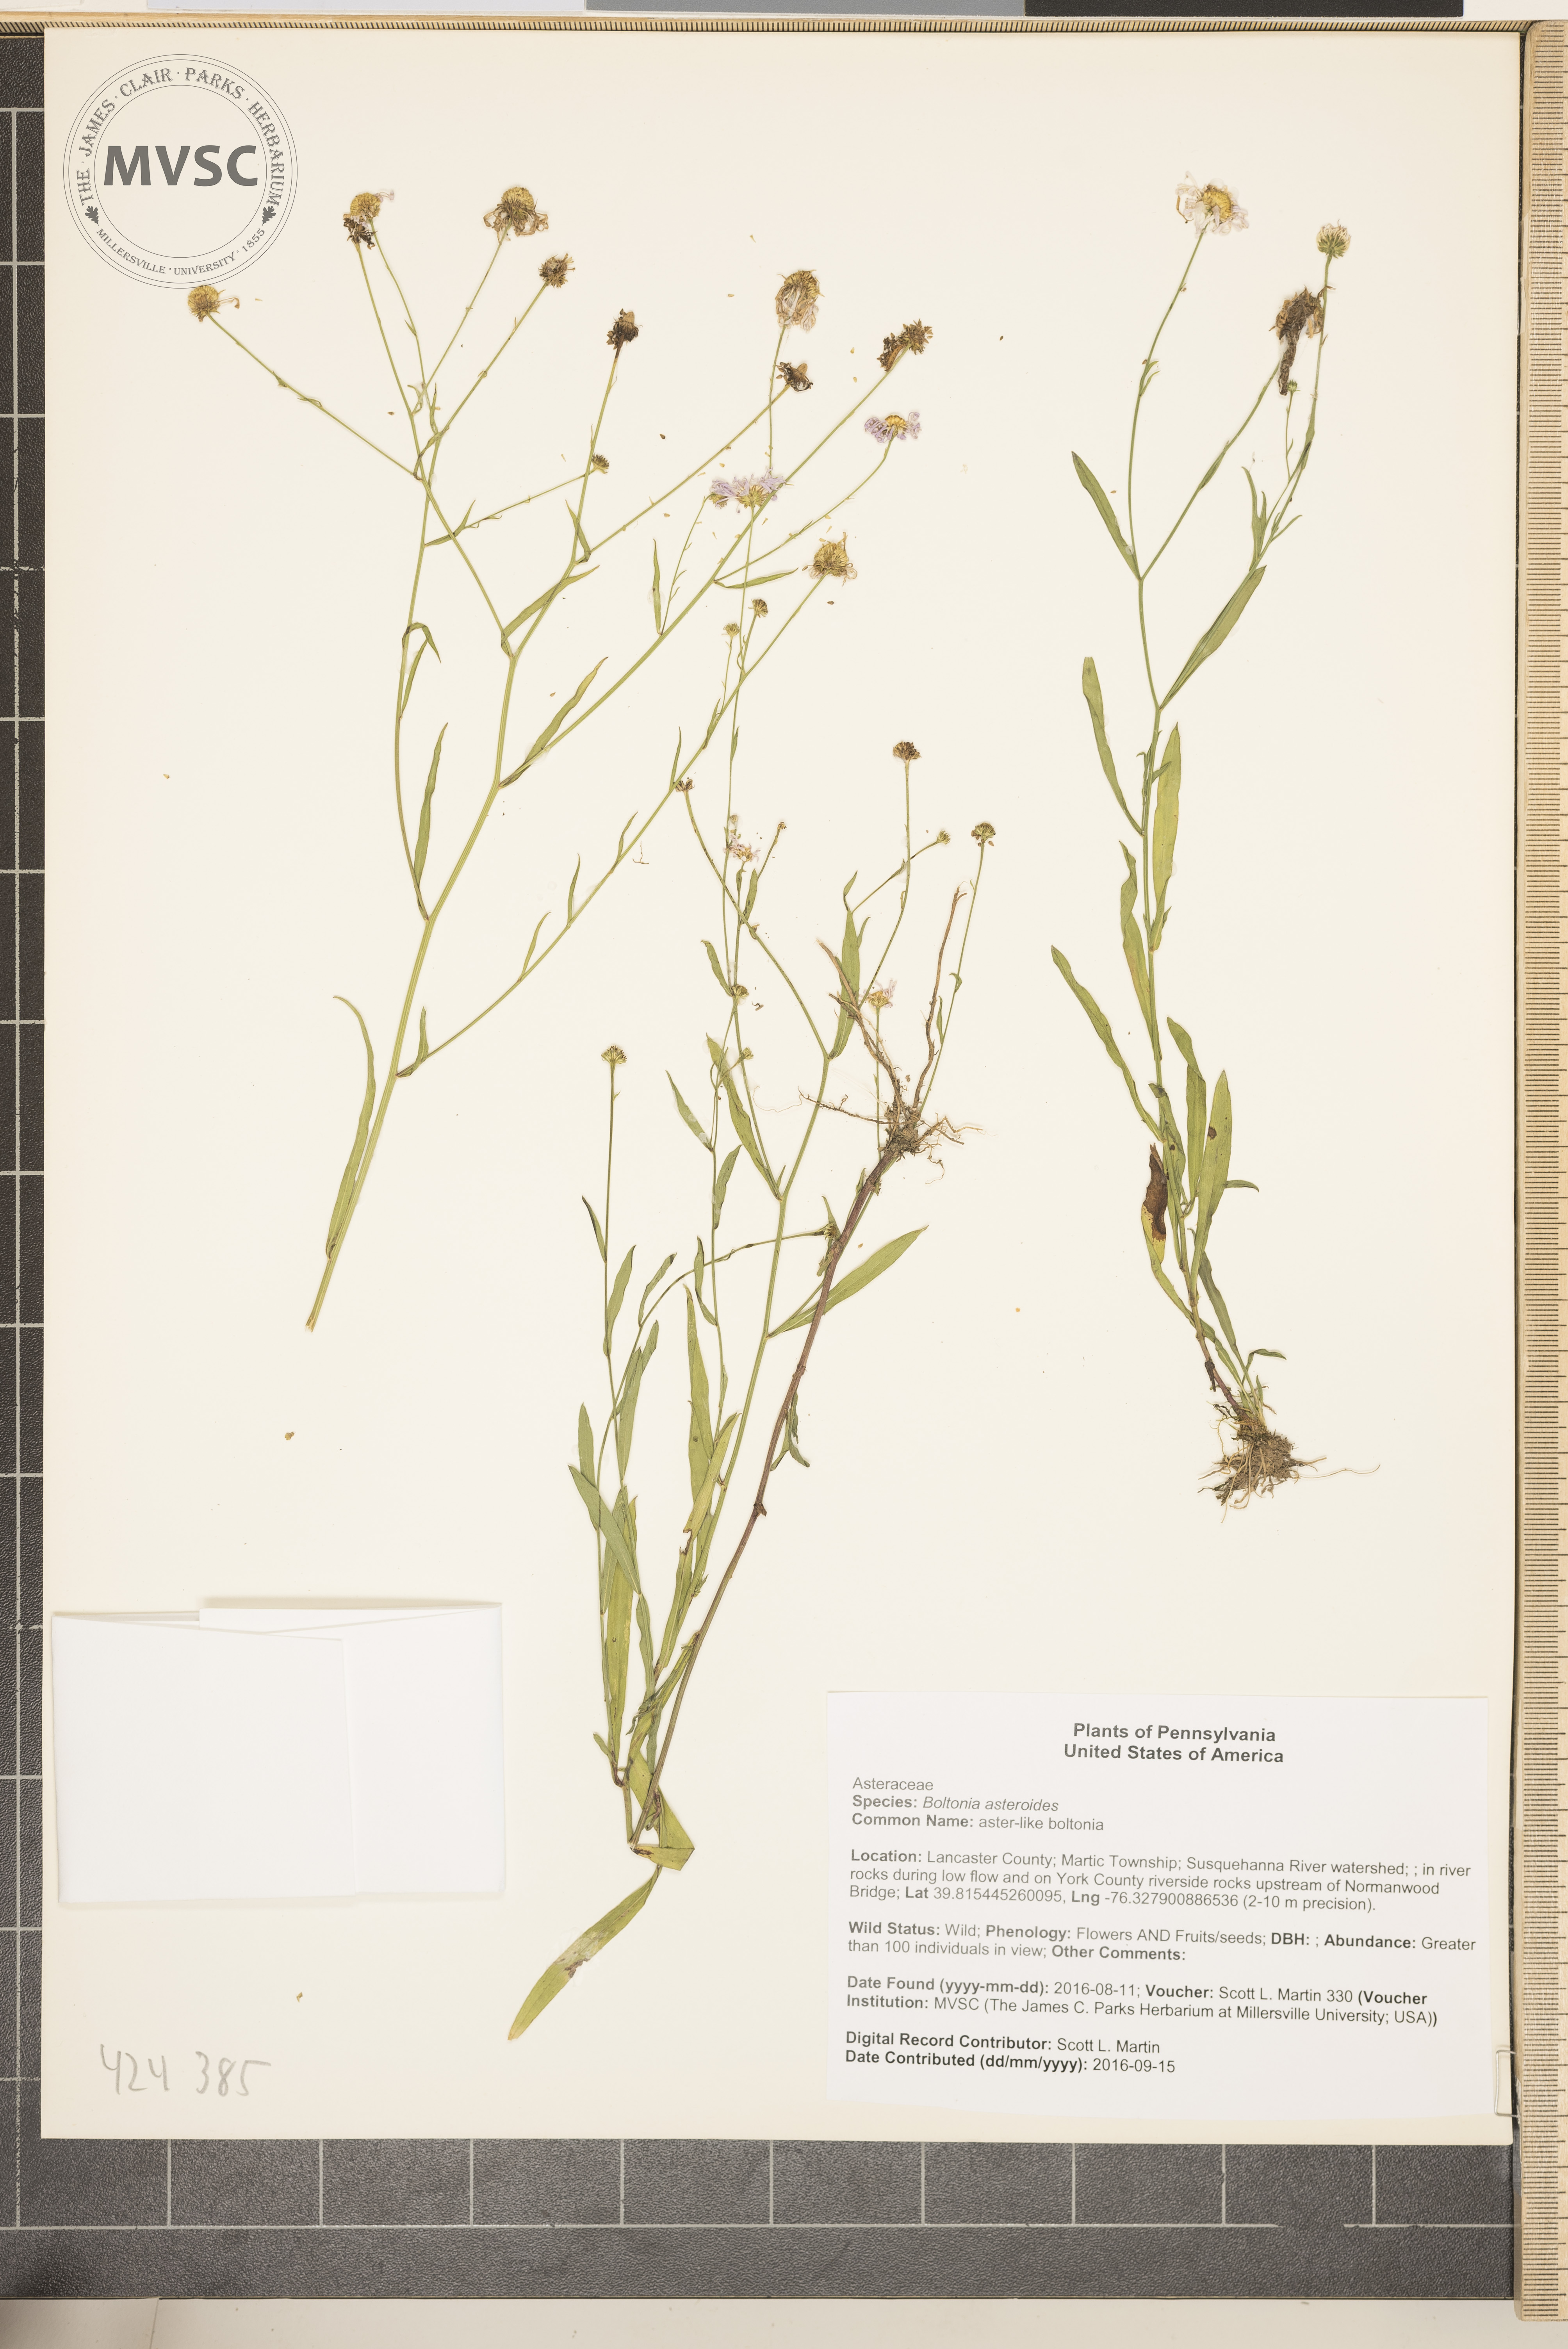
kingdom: Plantae
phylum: Tracheophyta
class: Magnoliopsida
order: Asterales
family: Asteraceae
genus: Boltonia
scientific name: Boltonia asteroides
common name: aster-like boltonia
